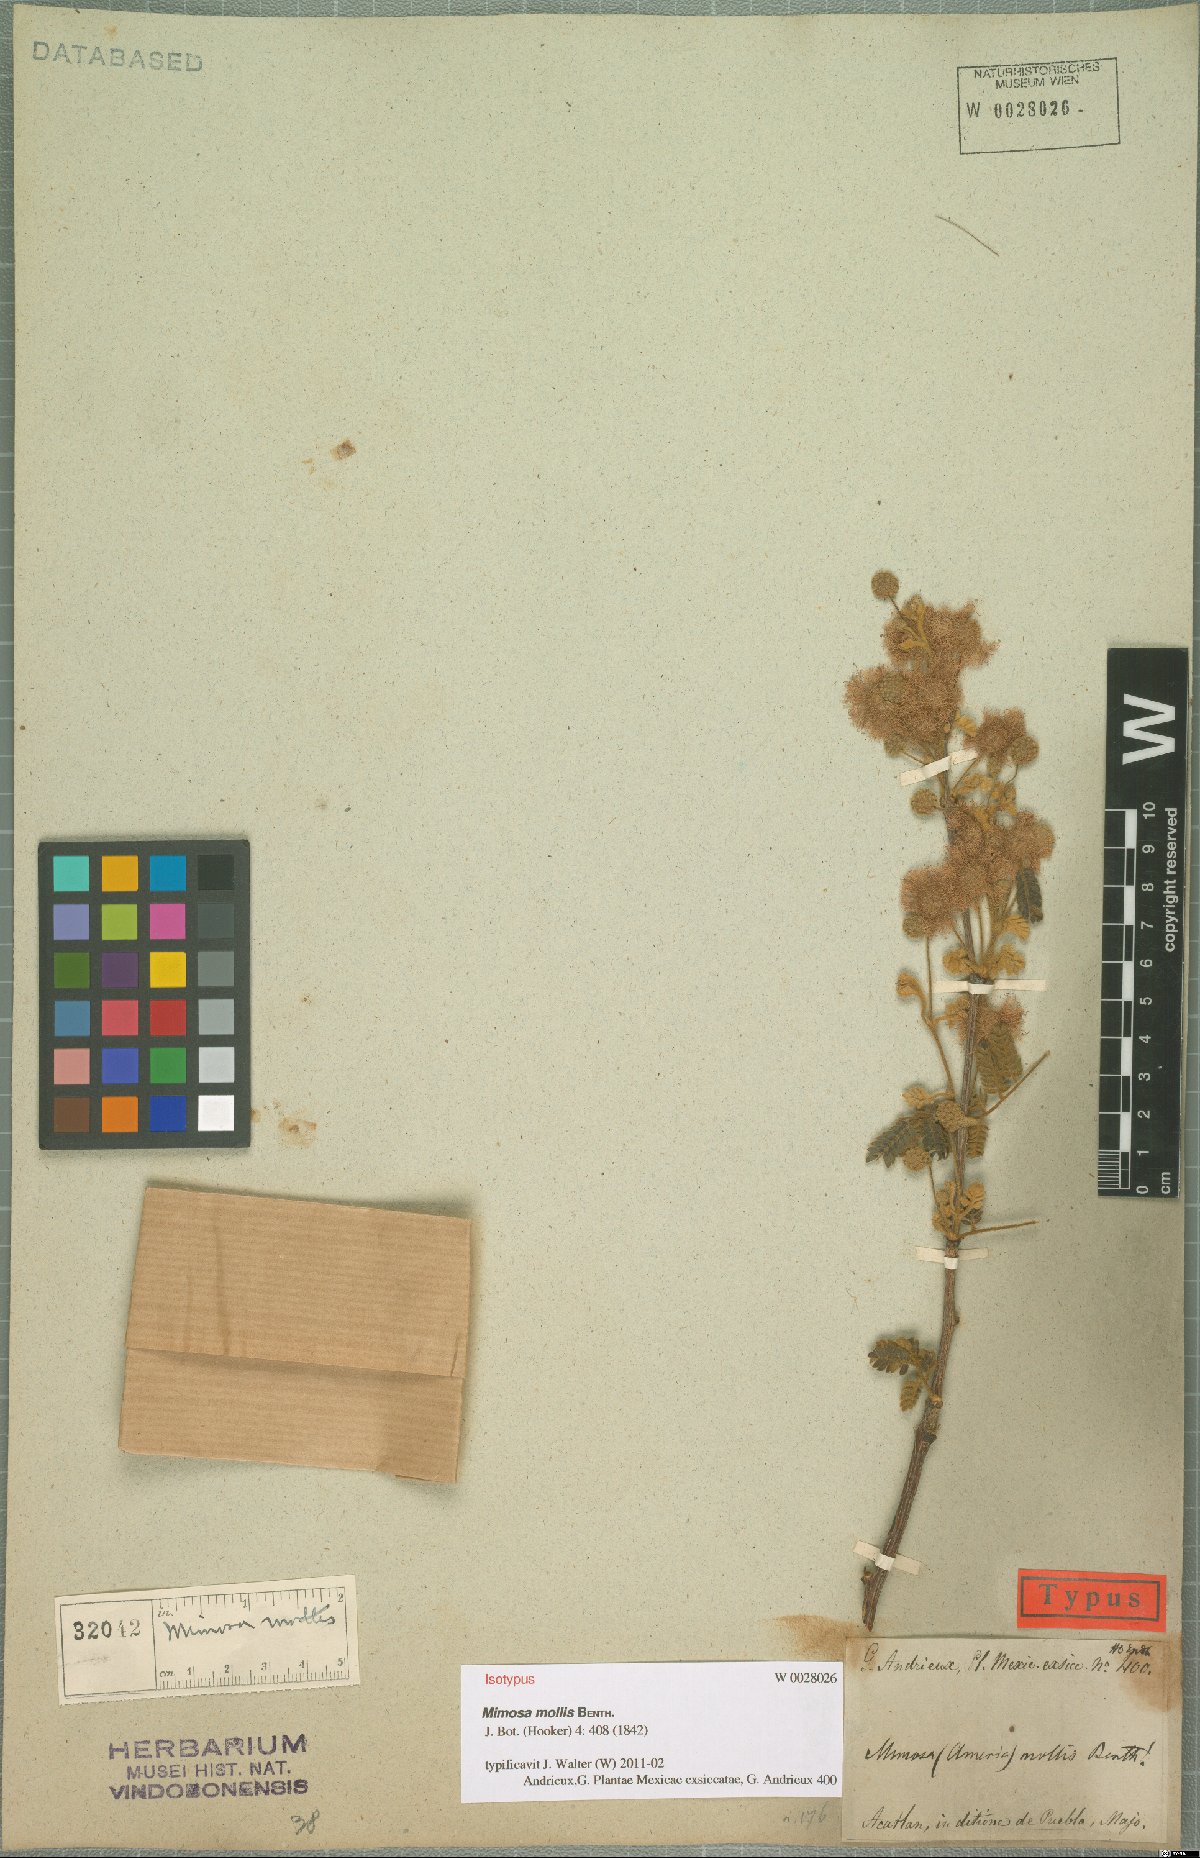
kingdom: Plantae
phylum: Tracheophyta
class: Magnoliopsida
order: Fabales
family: Fabaceae
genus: Mimosa
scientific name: Mimosa mollis
